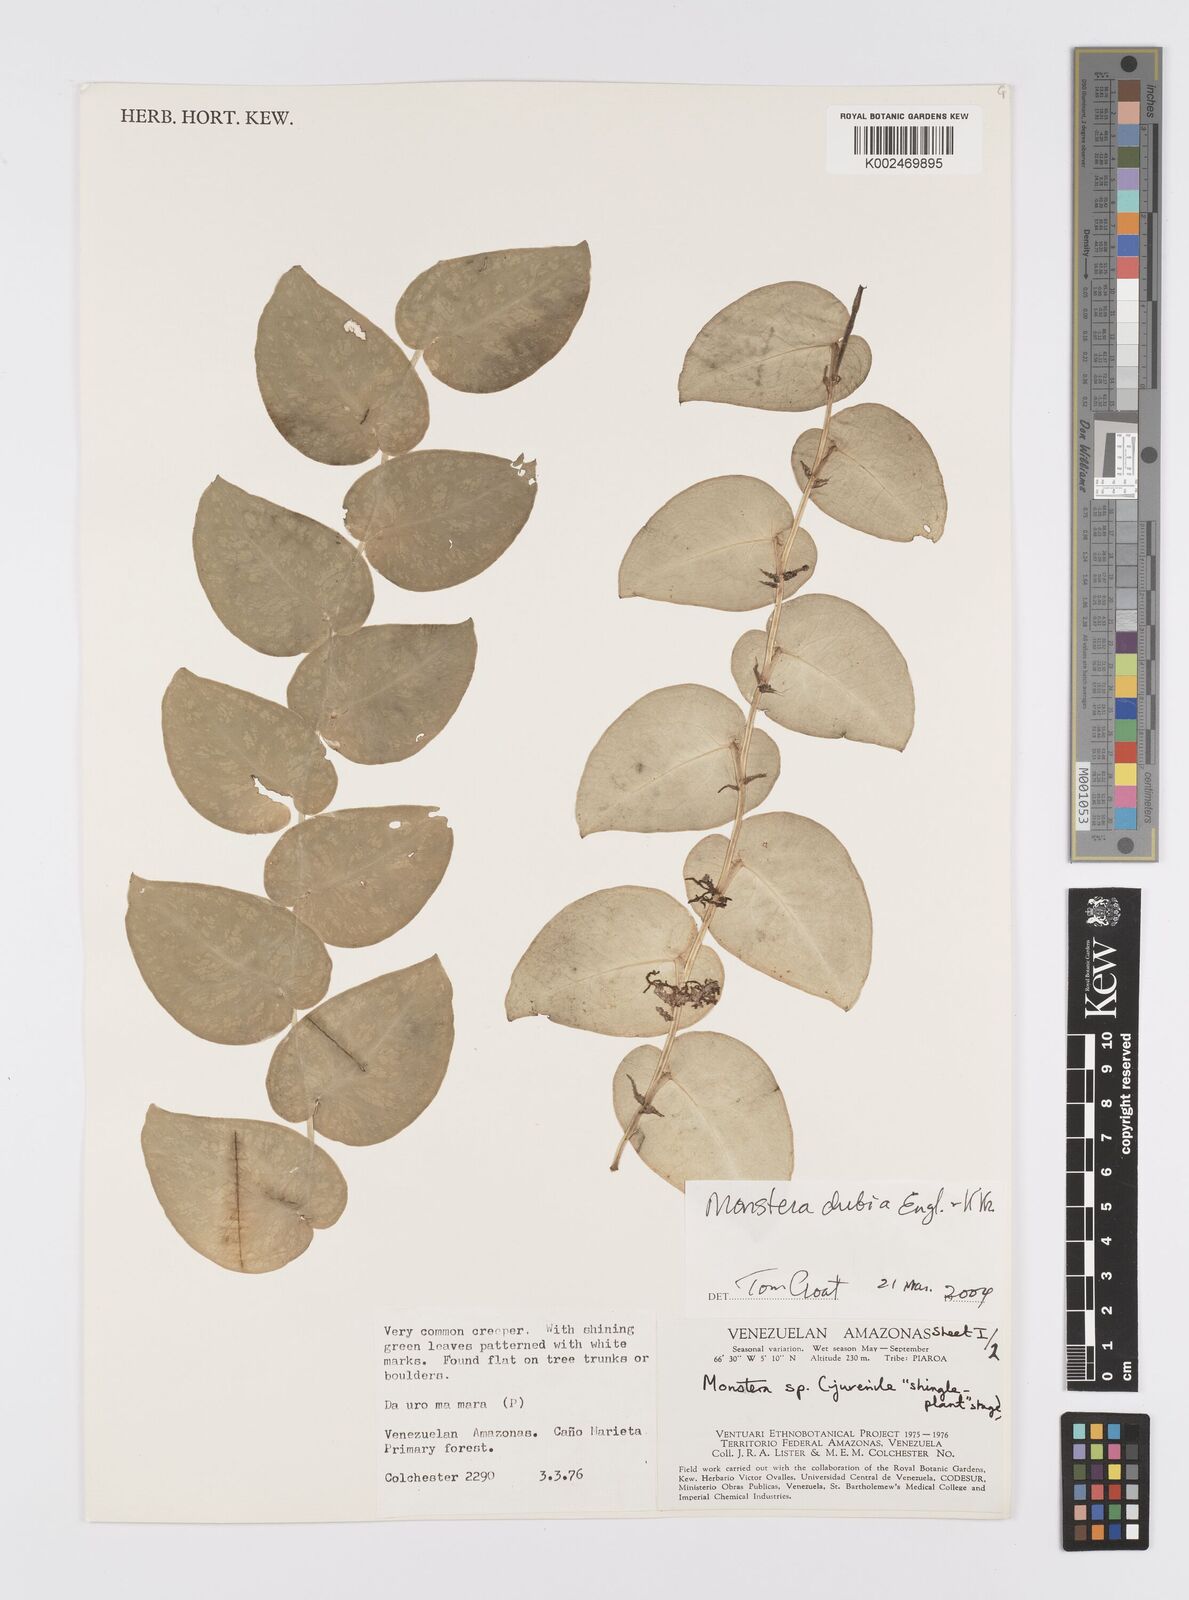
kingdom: Plantae
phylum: Tracheophyta
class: Liliopsida
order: Alismatales
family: Araceae
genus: Monstera
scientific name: Monstera dubia
